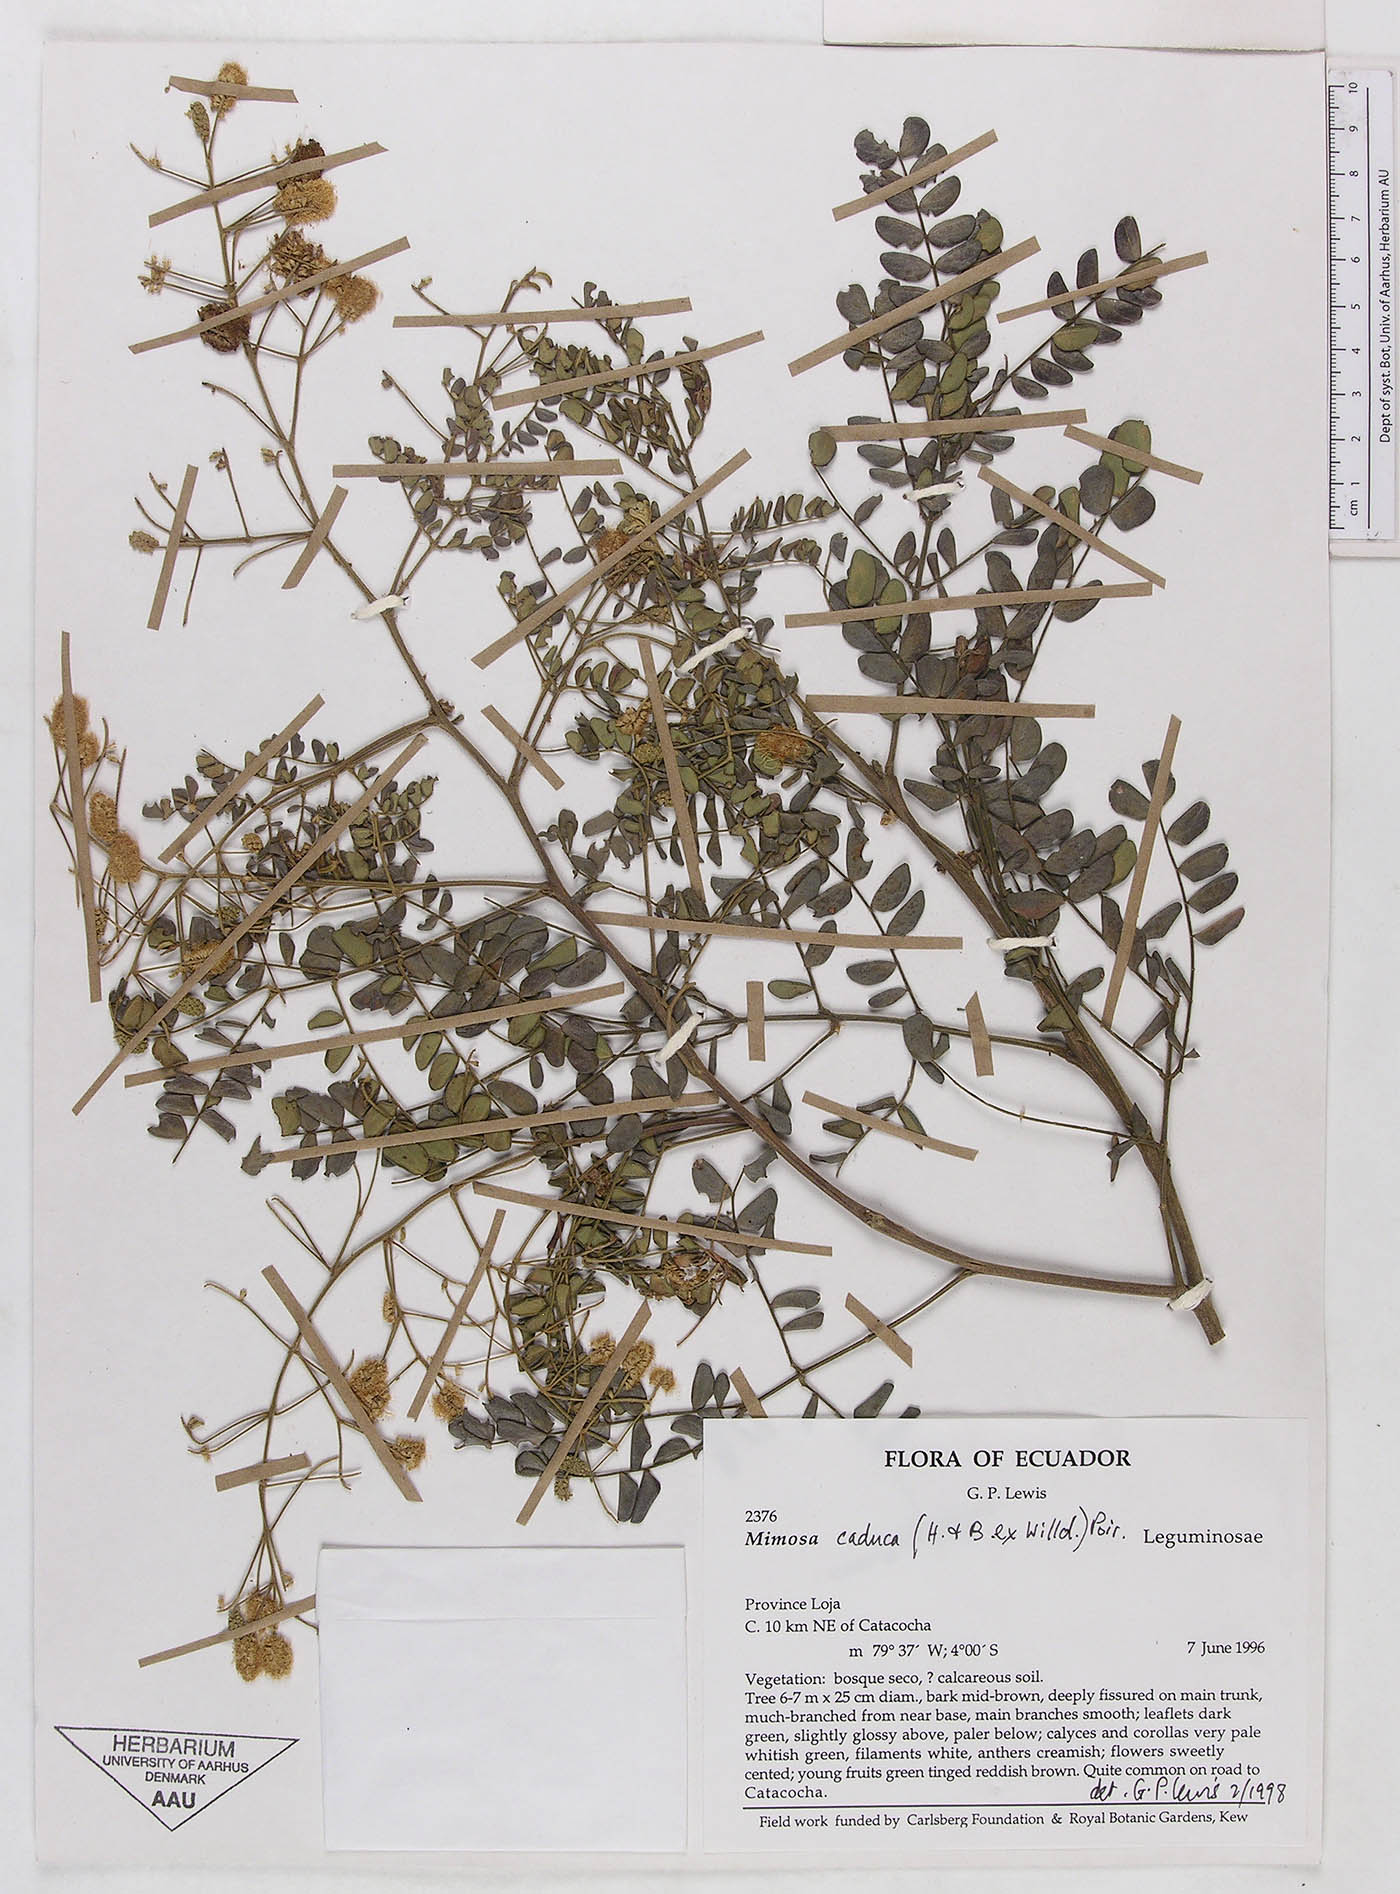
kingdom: Plantae
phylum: Tracheophyta
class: Magnoliopsida
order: Fabales
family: Fabaceae
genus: Mimosa
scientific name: Mimosa caduca
